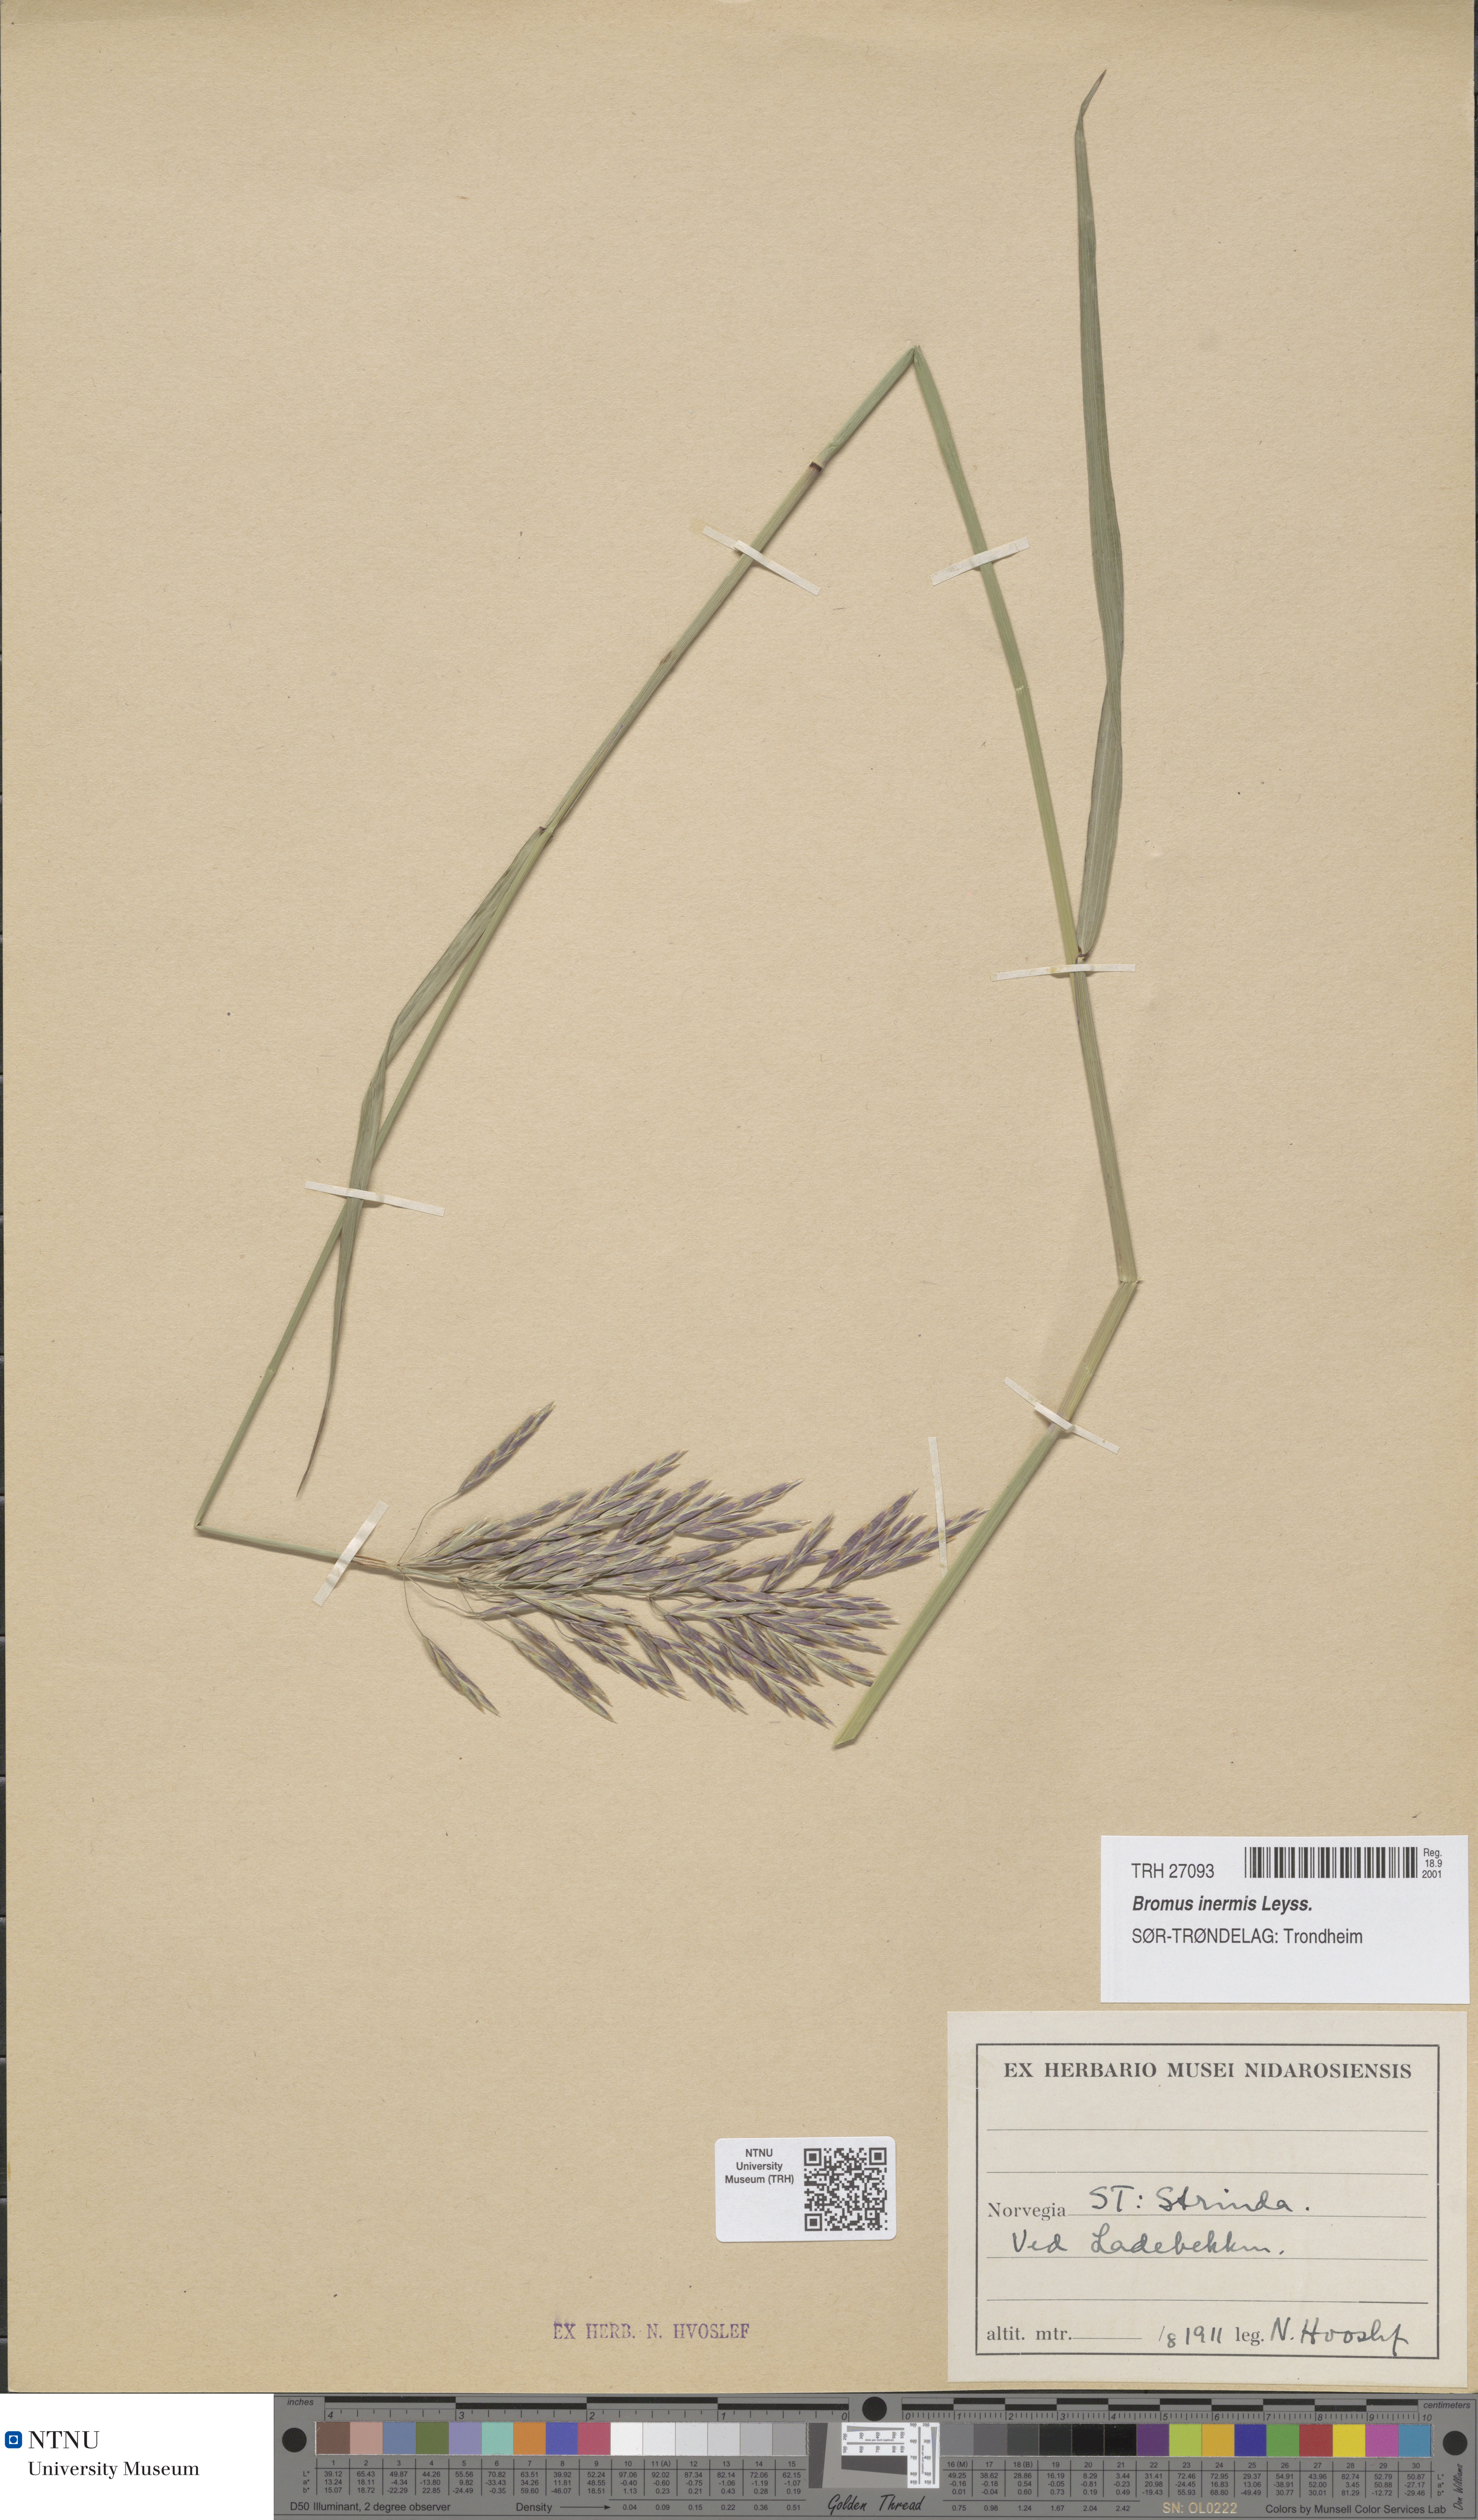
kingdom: Plantae
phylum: Tracheophyta
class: Liliopsida
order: Poales
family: Poaceae
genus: Bromus
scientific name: Bromus inermis
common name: Smooth brome
